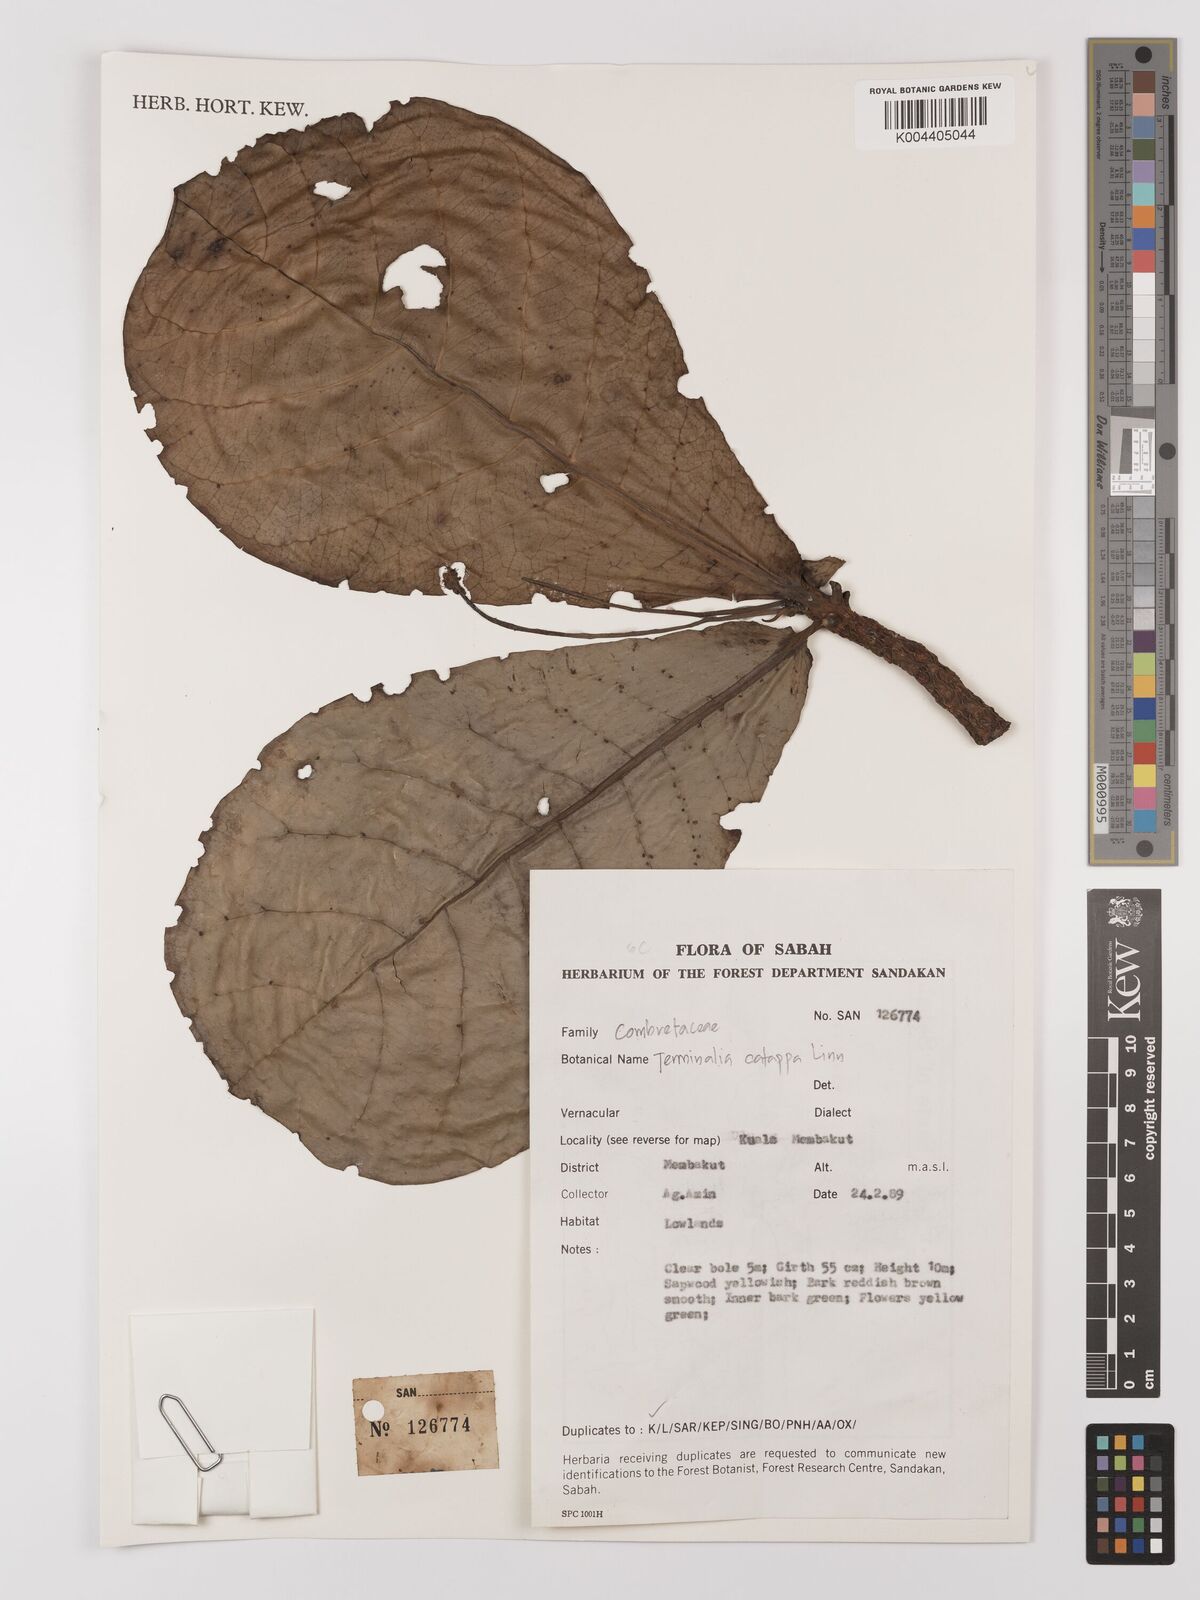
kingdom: Plantae
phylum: Tracheophyta
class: Magnoliopsida
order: Myrtales
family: Combretaceae
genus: Terminalia
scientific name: Terminalia catappa
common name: Tropical almond
